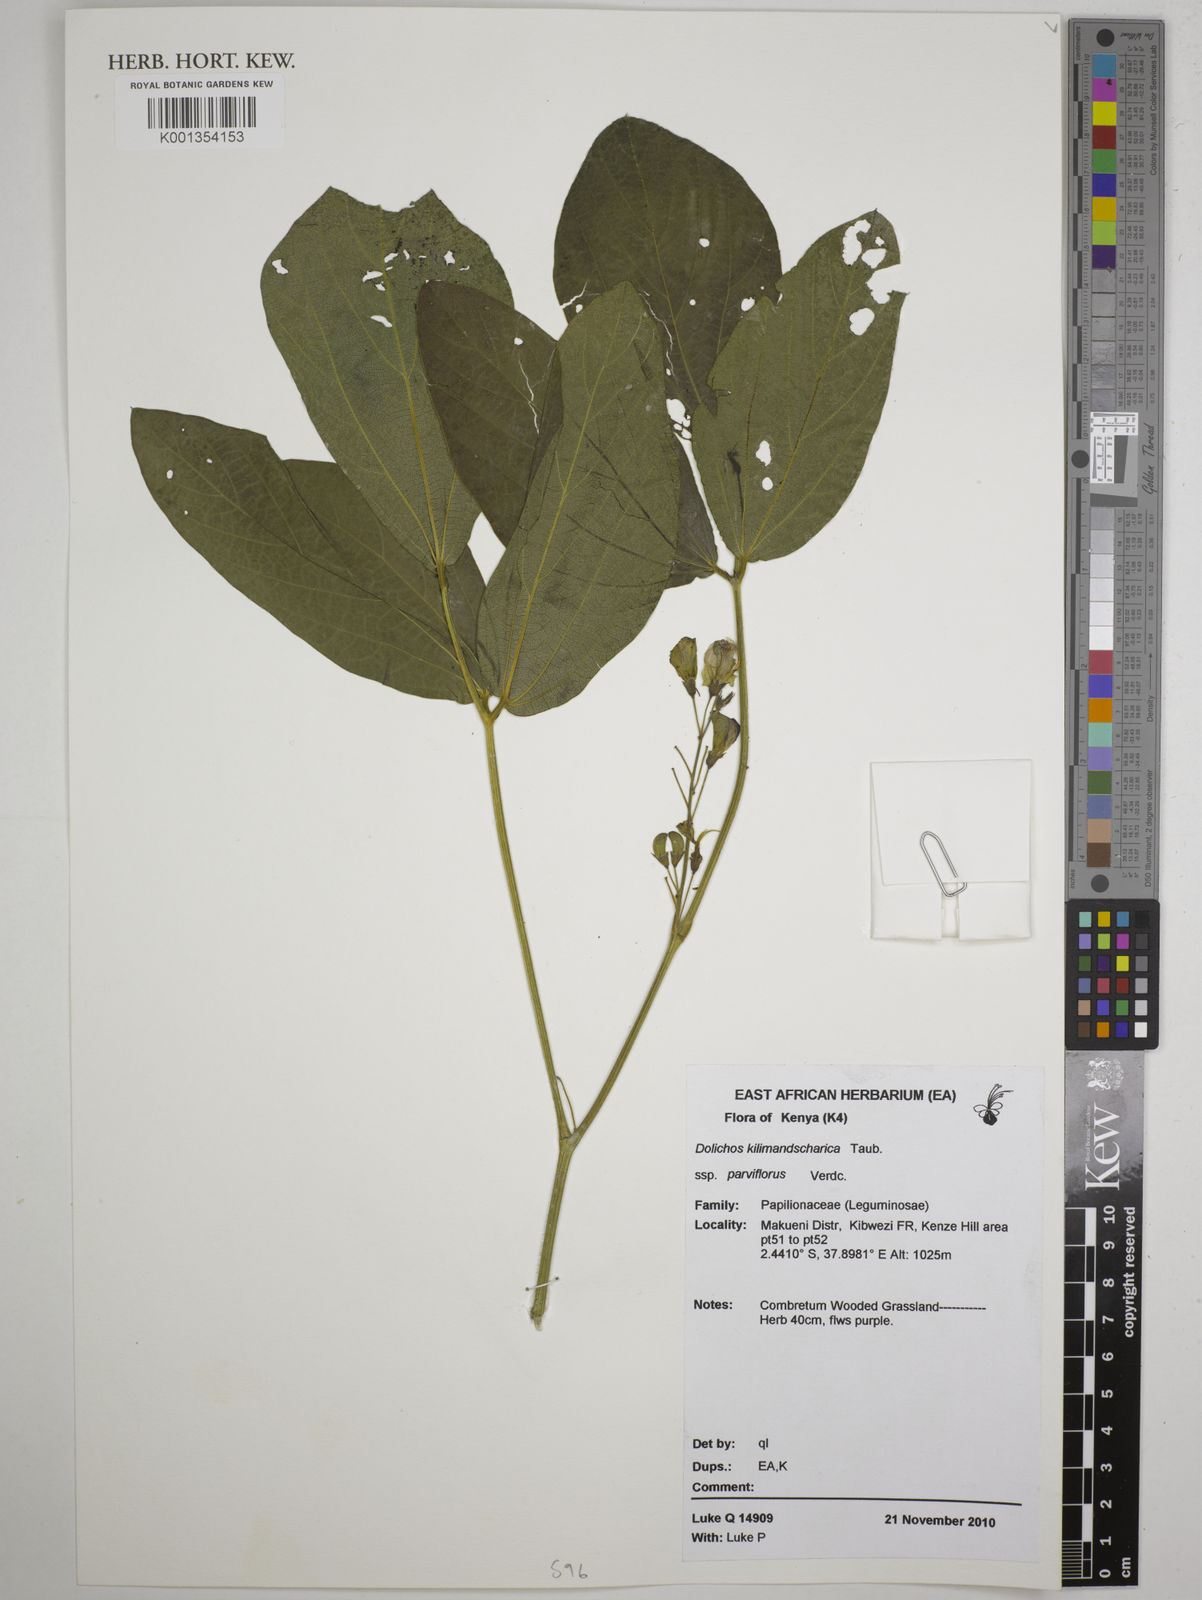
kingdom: Plantae
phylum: Tracheophyta
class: Magnoliopsida
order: Fabales
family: Fabaceae
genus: Dolichos
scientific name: Dolichos
